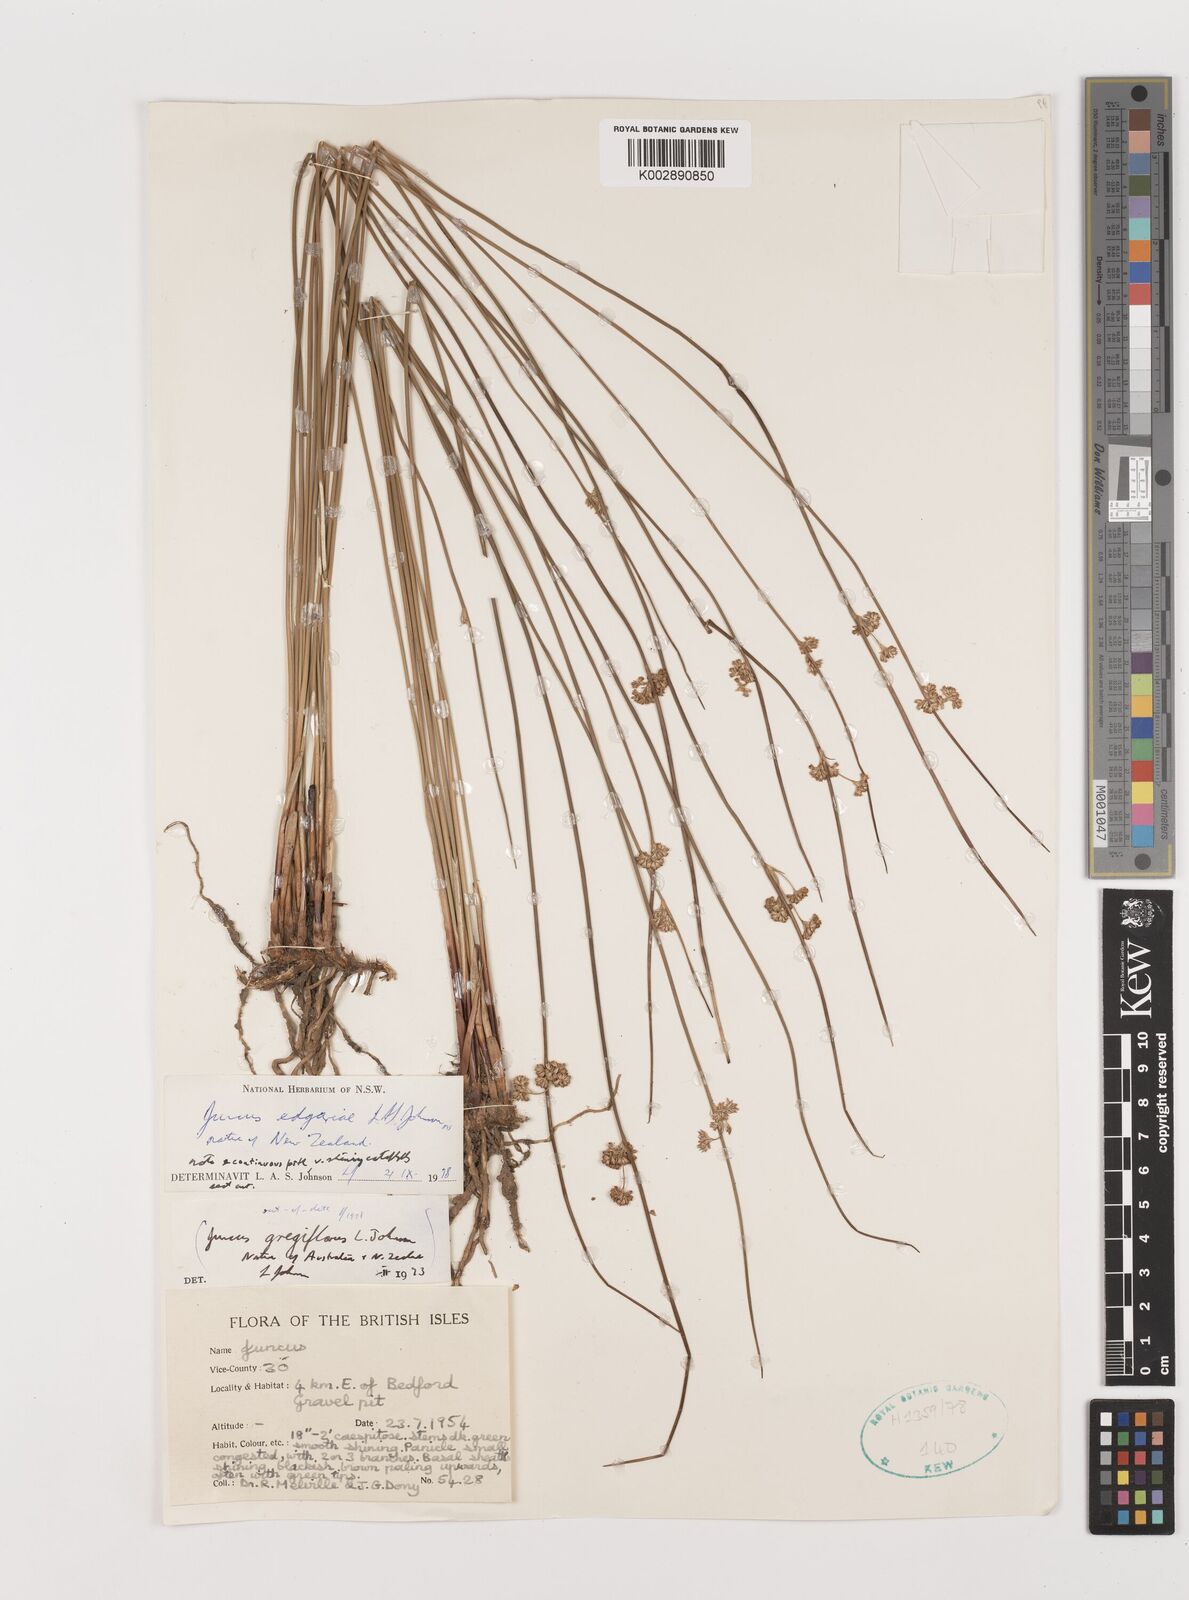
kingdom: Plantae
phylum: Tracheophyta
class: Liliopsida
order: Poales
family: Juncaceae
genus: Juncus
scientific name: Juncus gregiflorus
